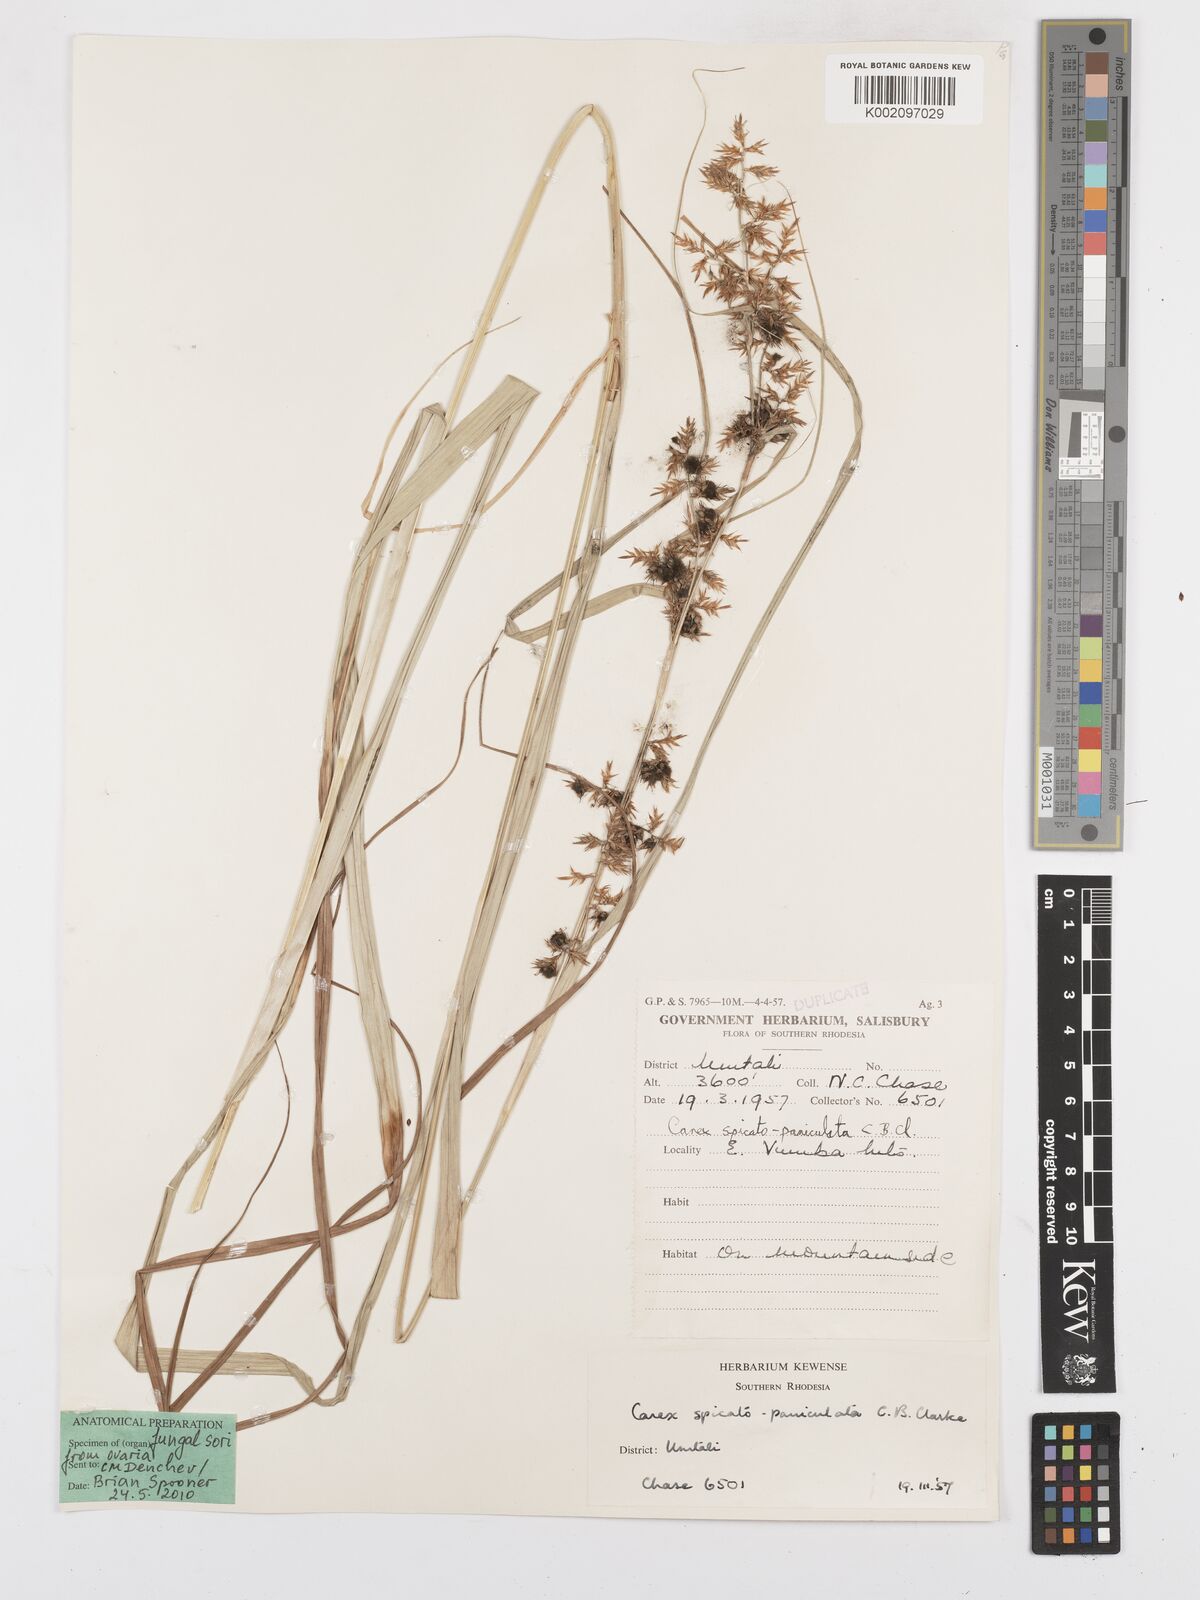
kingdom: Plantae
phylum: Tracheophyta
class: Liliopsida
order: Poales
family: Cyperaceae
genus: Carex
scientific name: Carex spicatopaniculata
